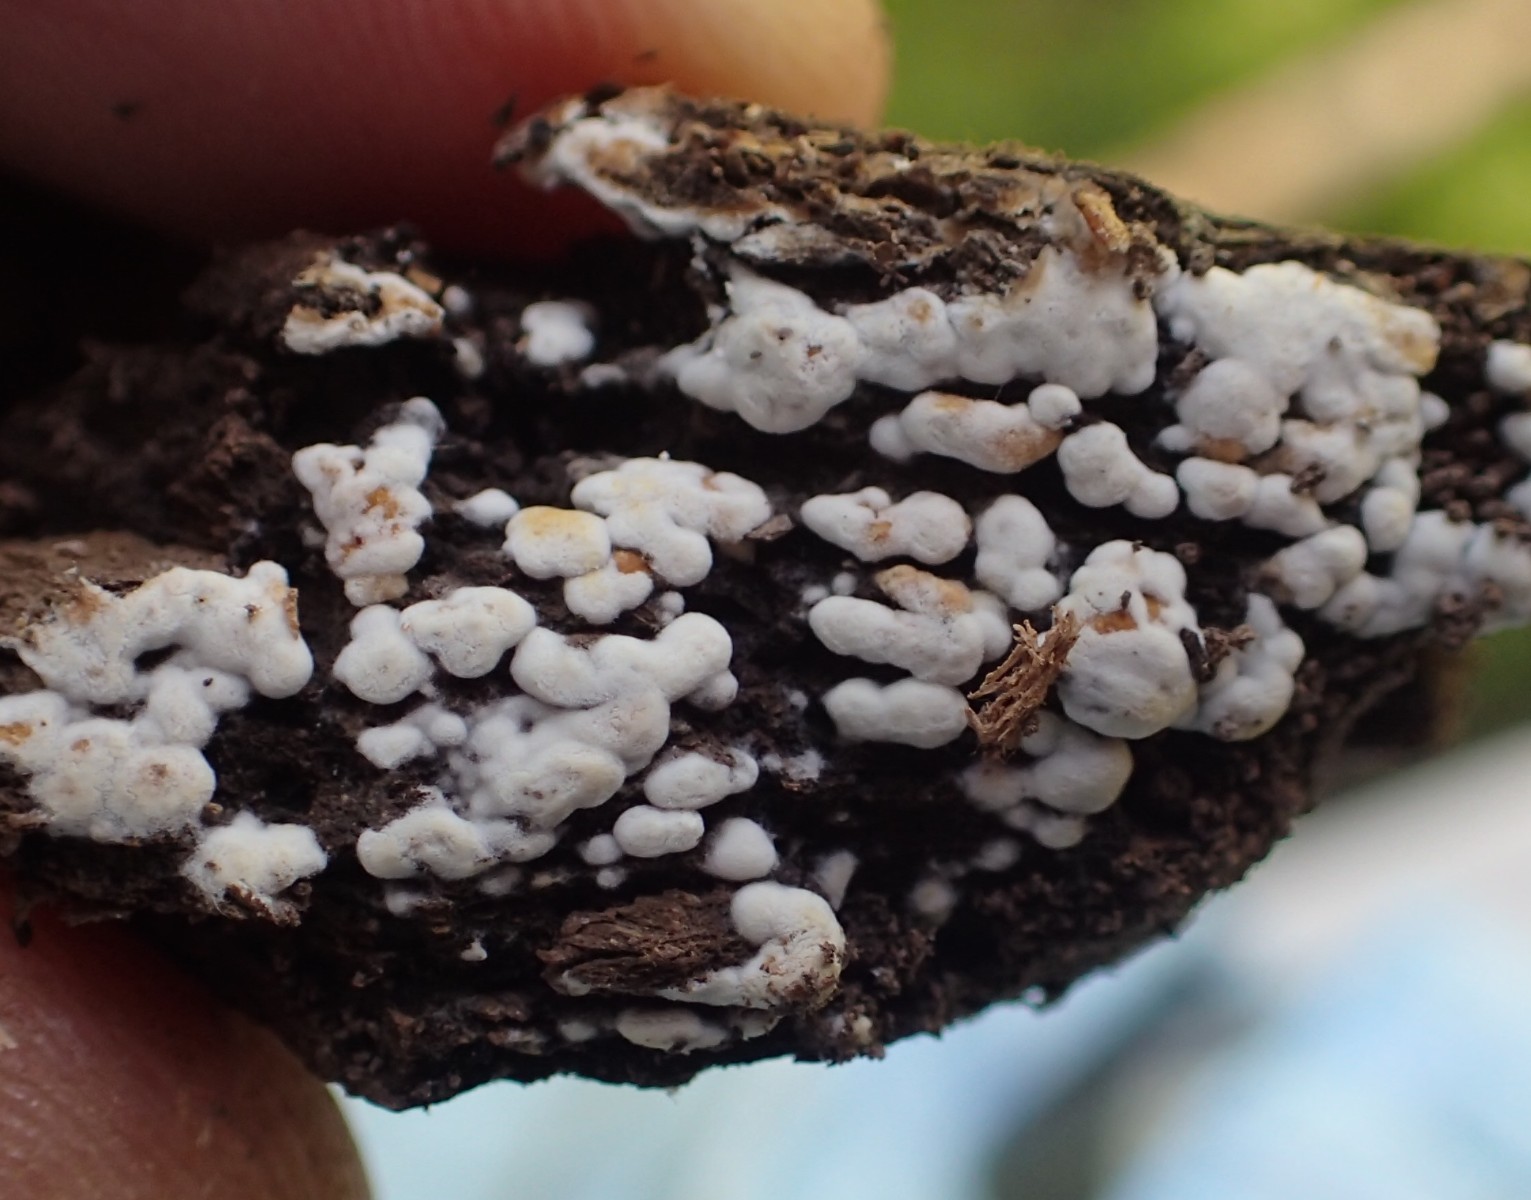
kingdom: Fungi
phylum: Basidiomycota
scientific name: Basidiomycota
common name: basidiesvampe
